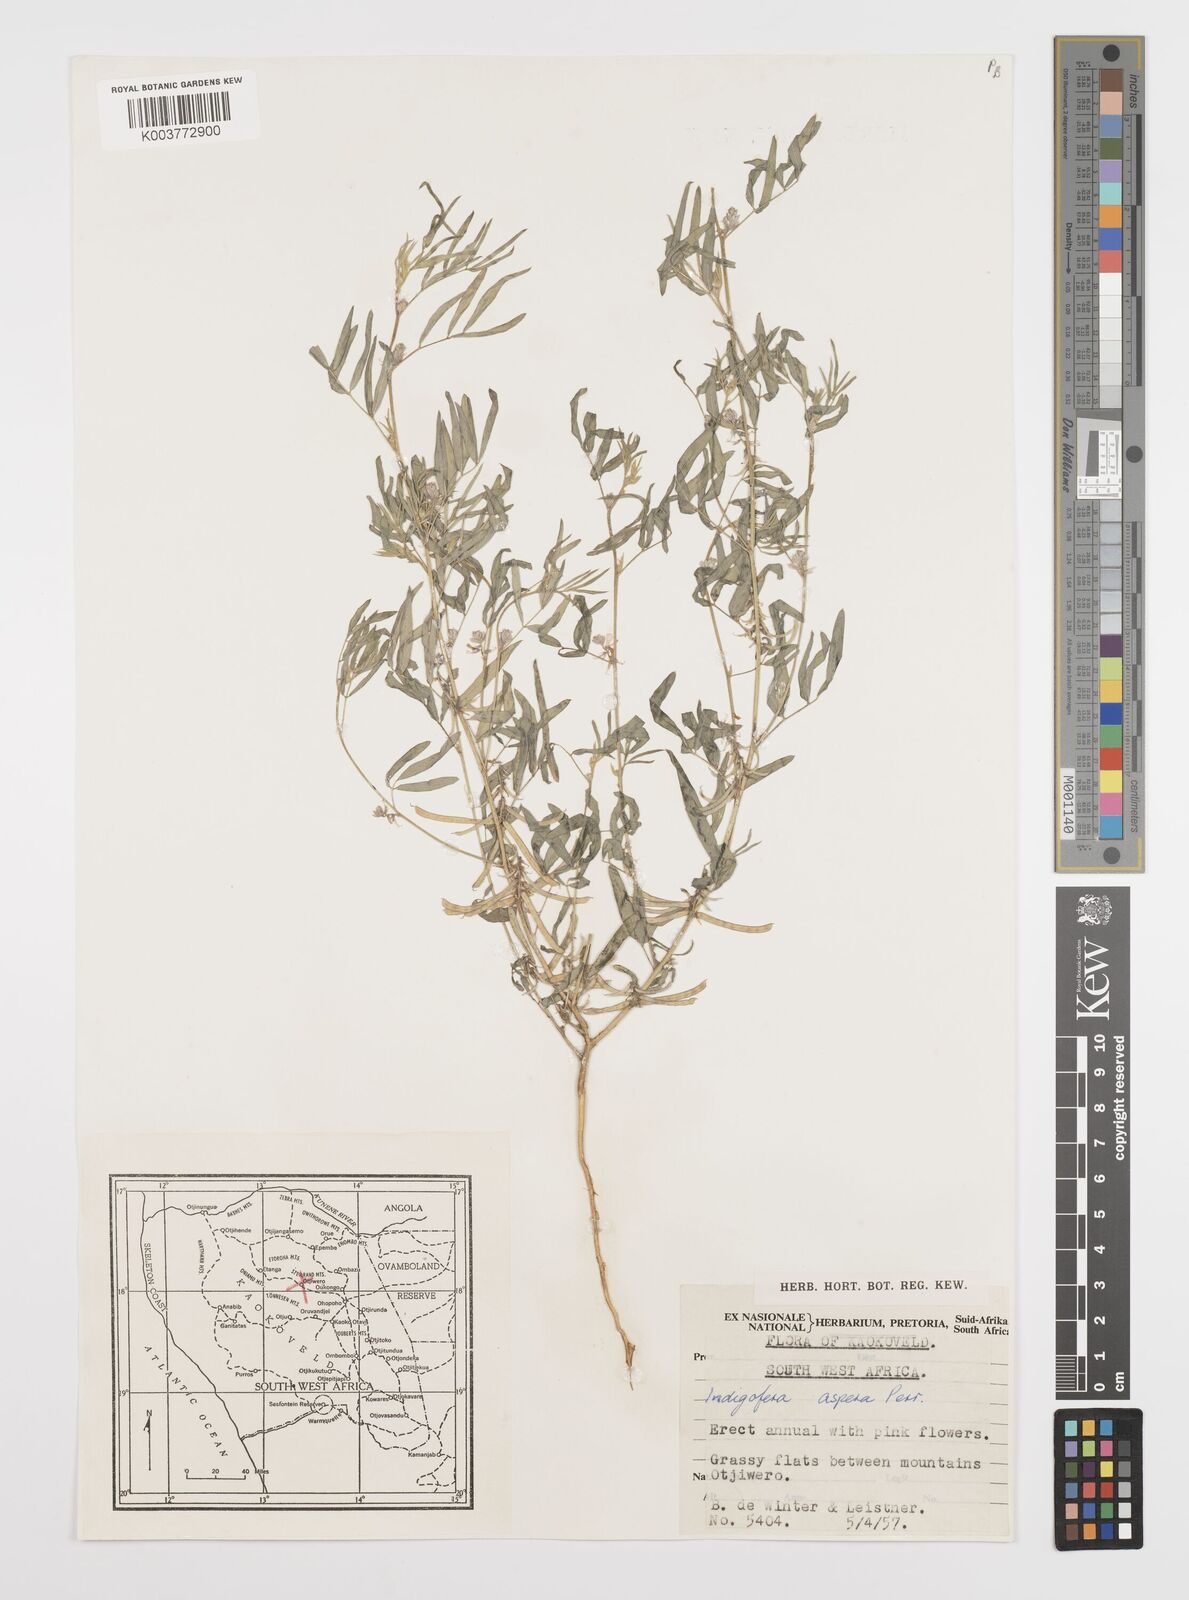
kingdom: Plantae
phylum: Tracheophyta
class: Magnoliopsida
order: Fabales
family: Fabaceae
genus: Indigofera
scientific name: Indigofera charlieriana
